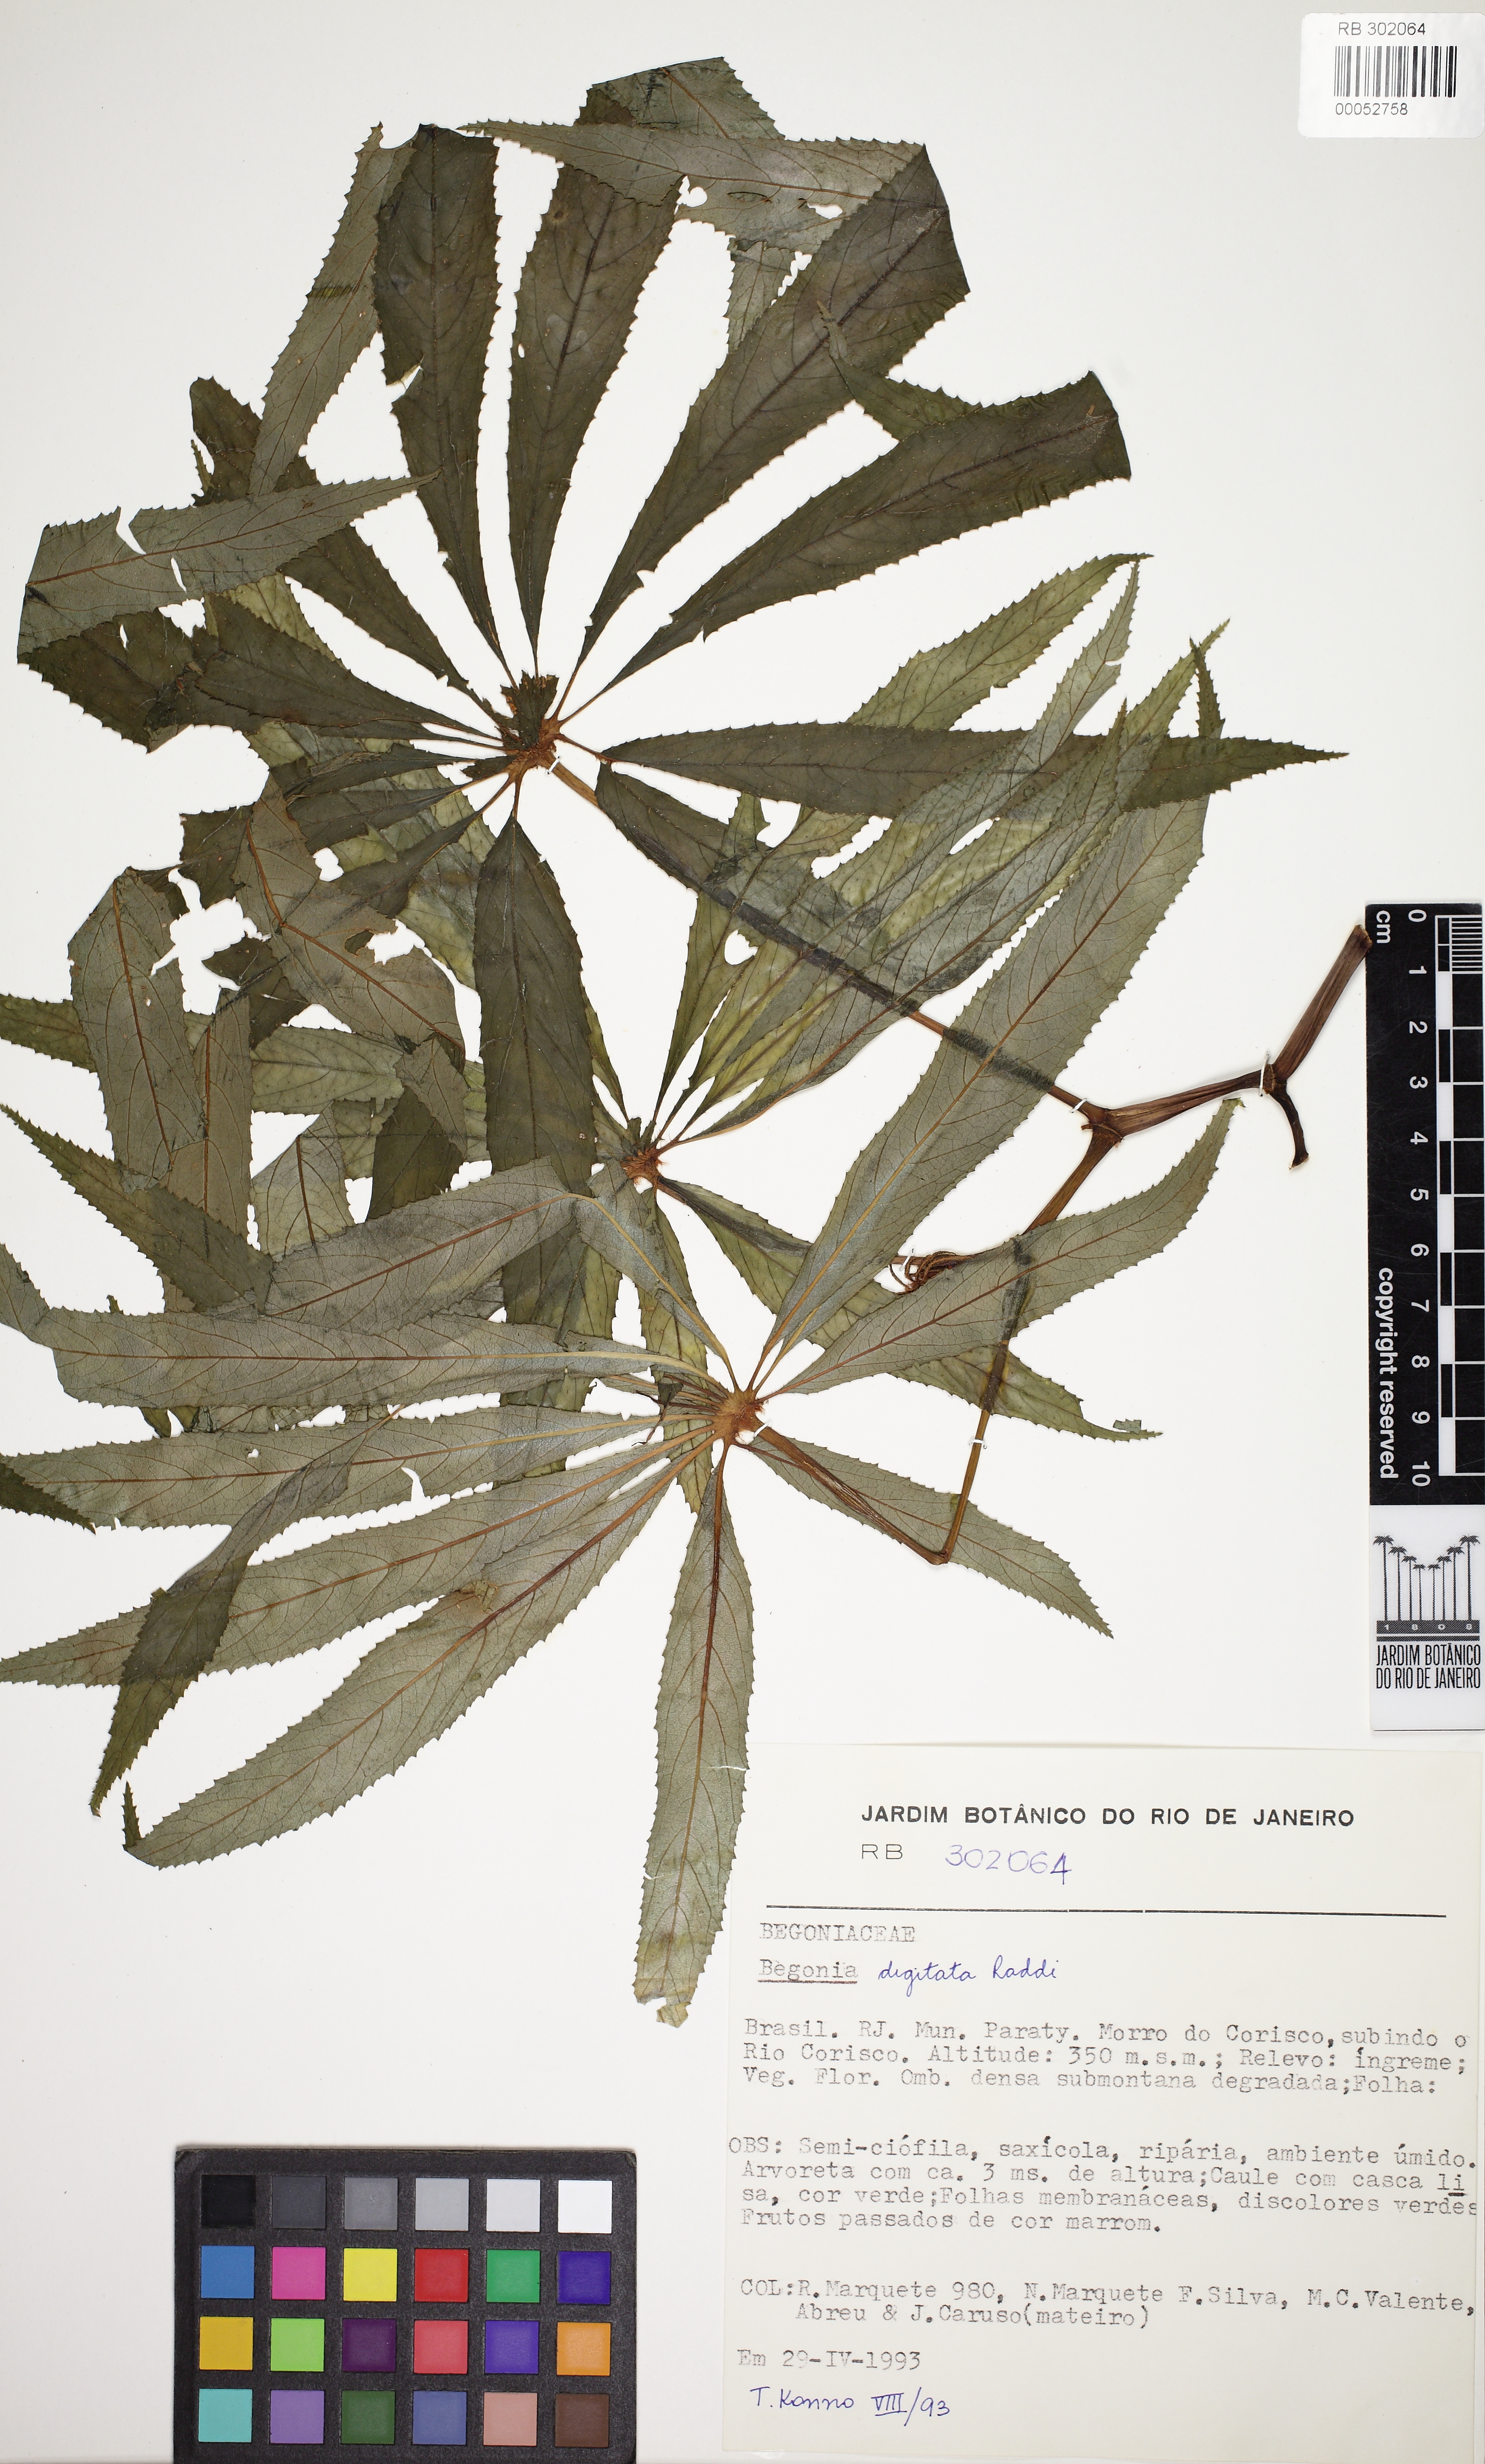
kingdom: Plantae
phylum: Tracheophyta
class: Magnoliopsida
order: Cucurbitales
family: Begoniaceae
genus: Begonia
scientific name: Begonia luxurians
